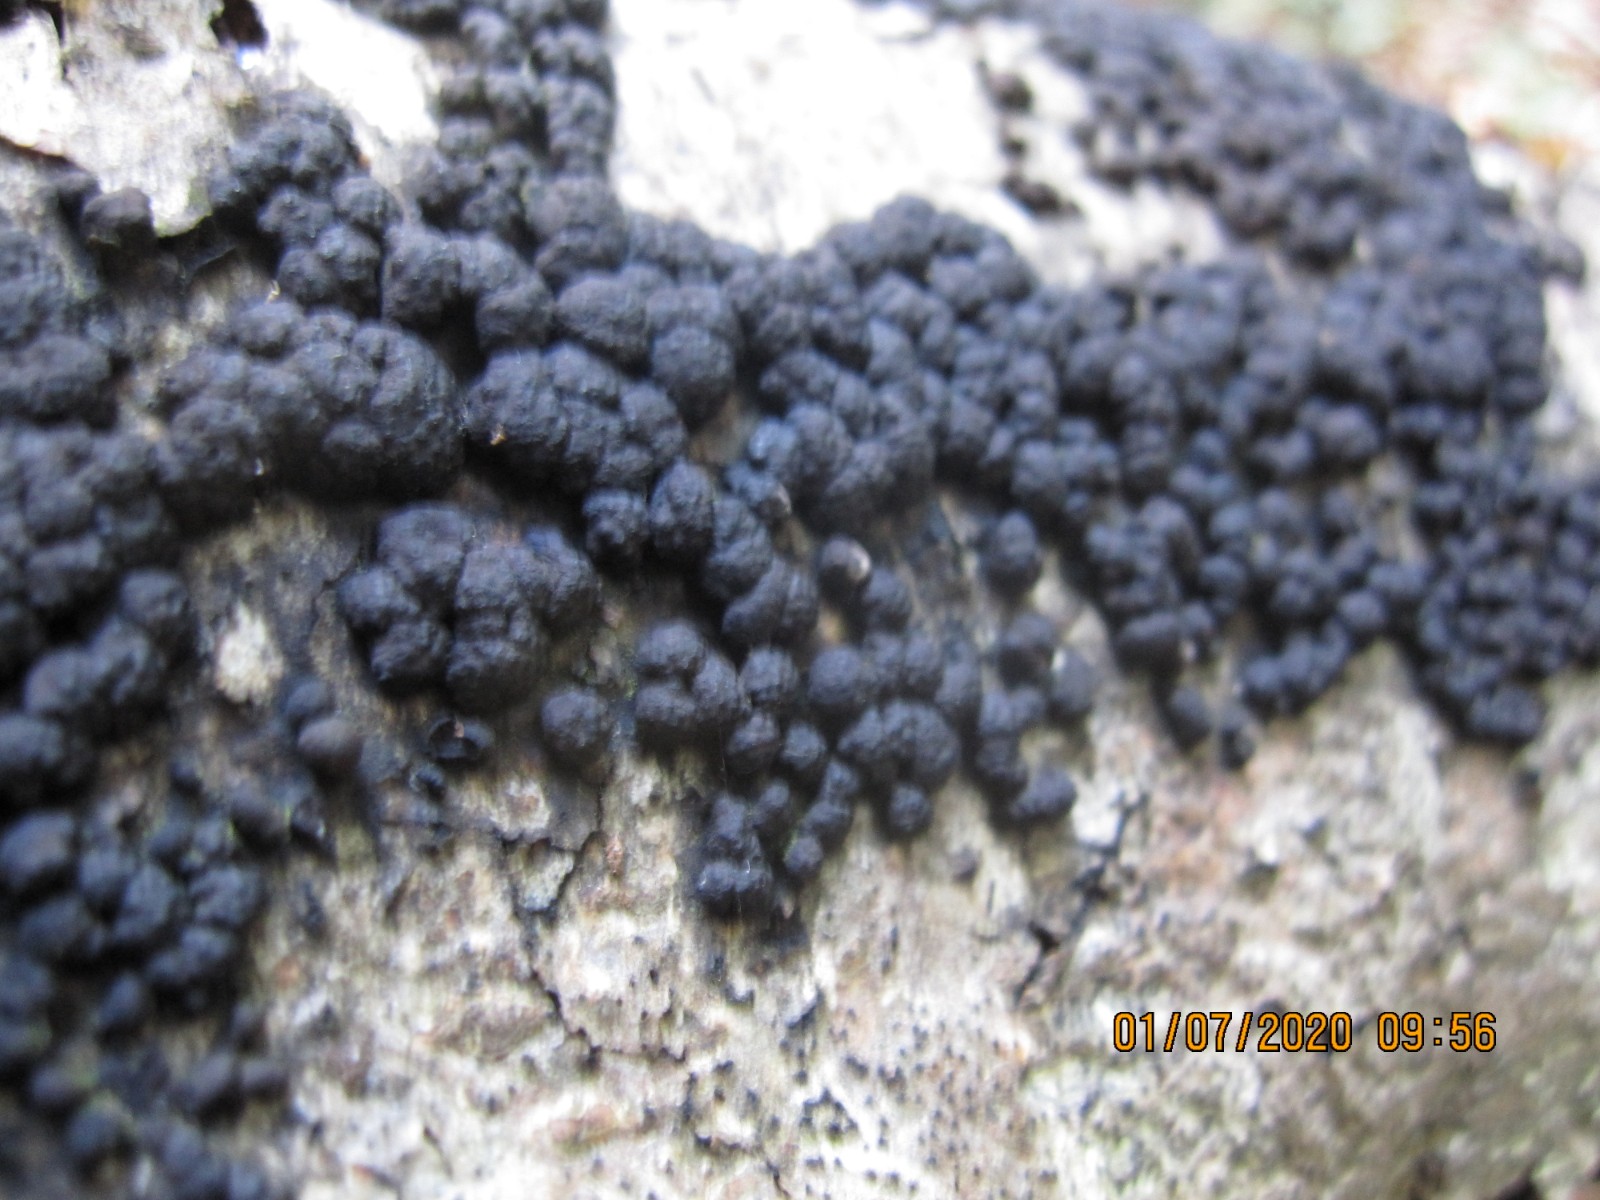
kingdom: Fungi
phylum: Ascomycota
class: Sordariomycetes
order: Xylariales
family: Hypoxylaceae
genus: Jackrogersella
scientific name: Jackrogersella cohaerens
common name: sammenflydende kulbær
